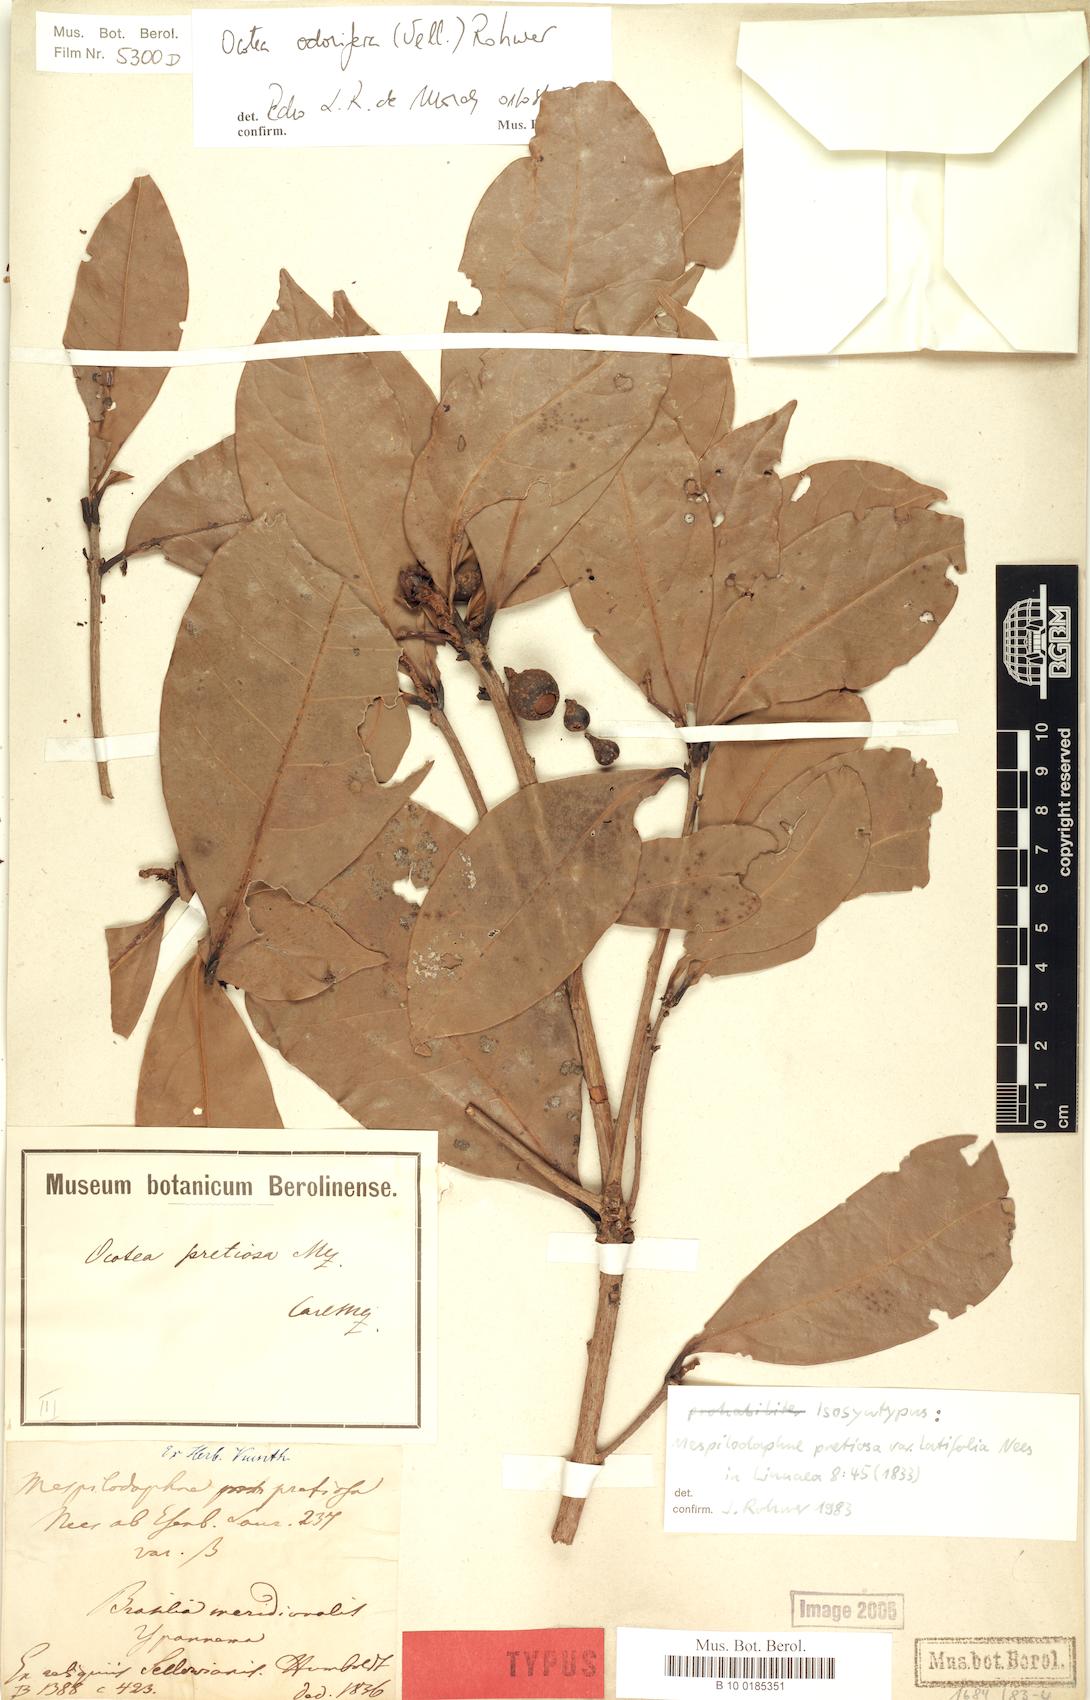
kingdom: Plantae
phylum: Tracheophyta
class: Magnoliopsida
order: Laurales
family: Lauraceae
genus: Mespilodaphne
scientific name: Mespilodaphne quixos
